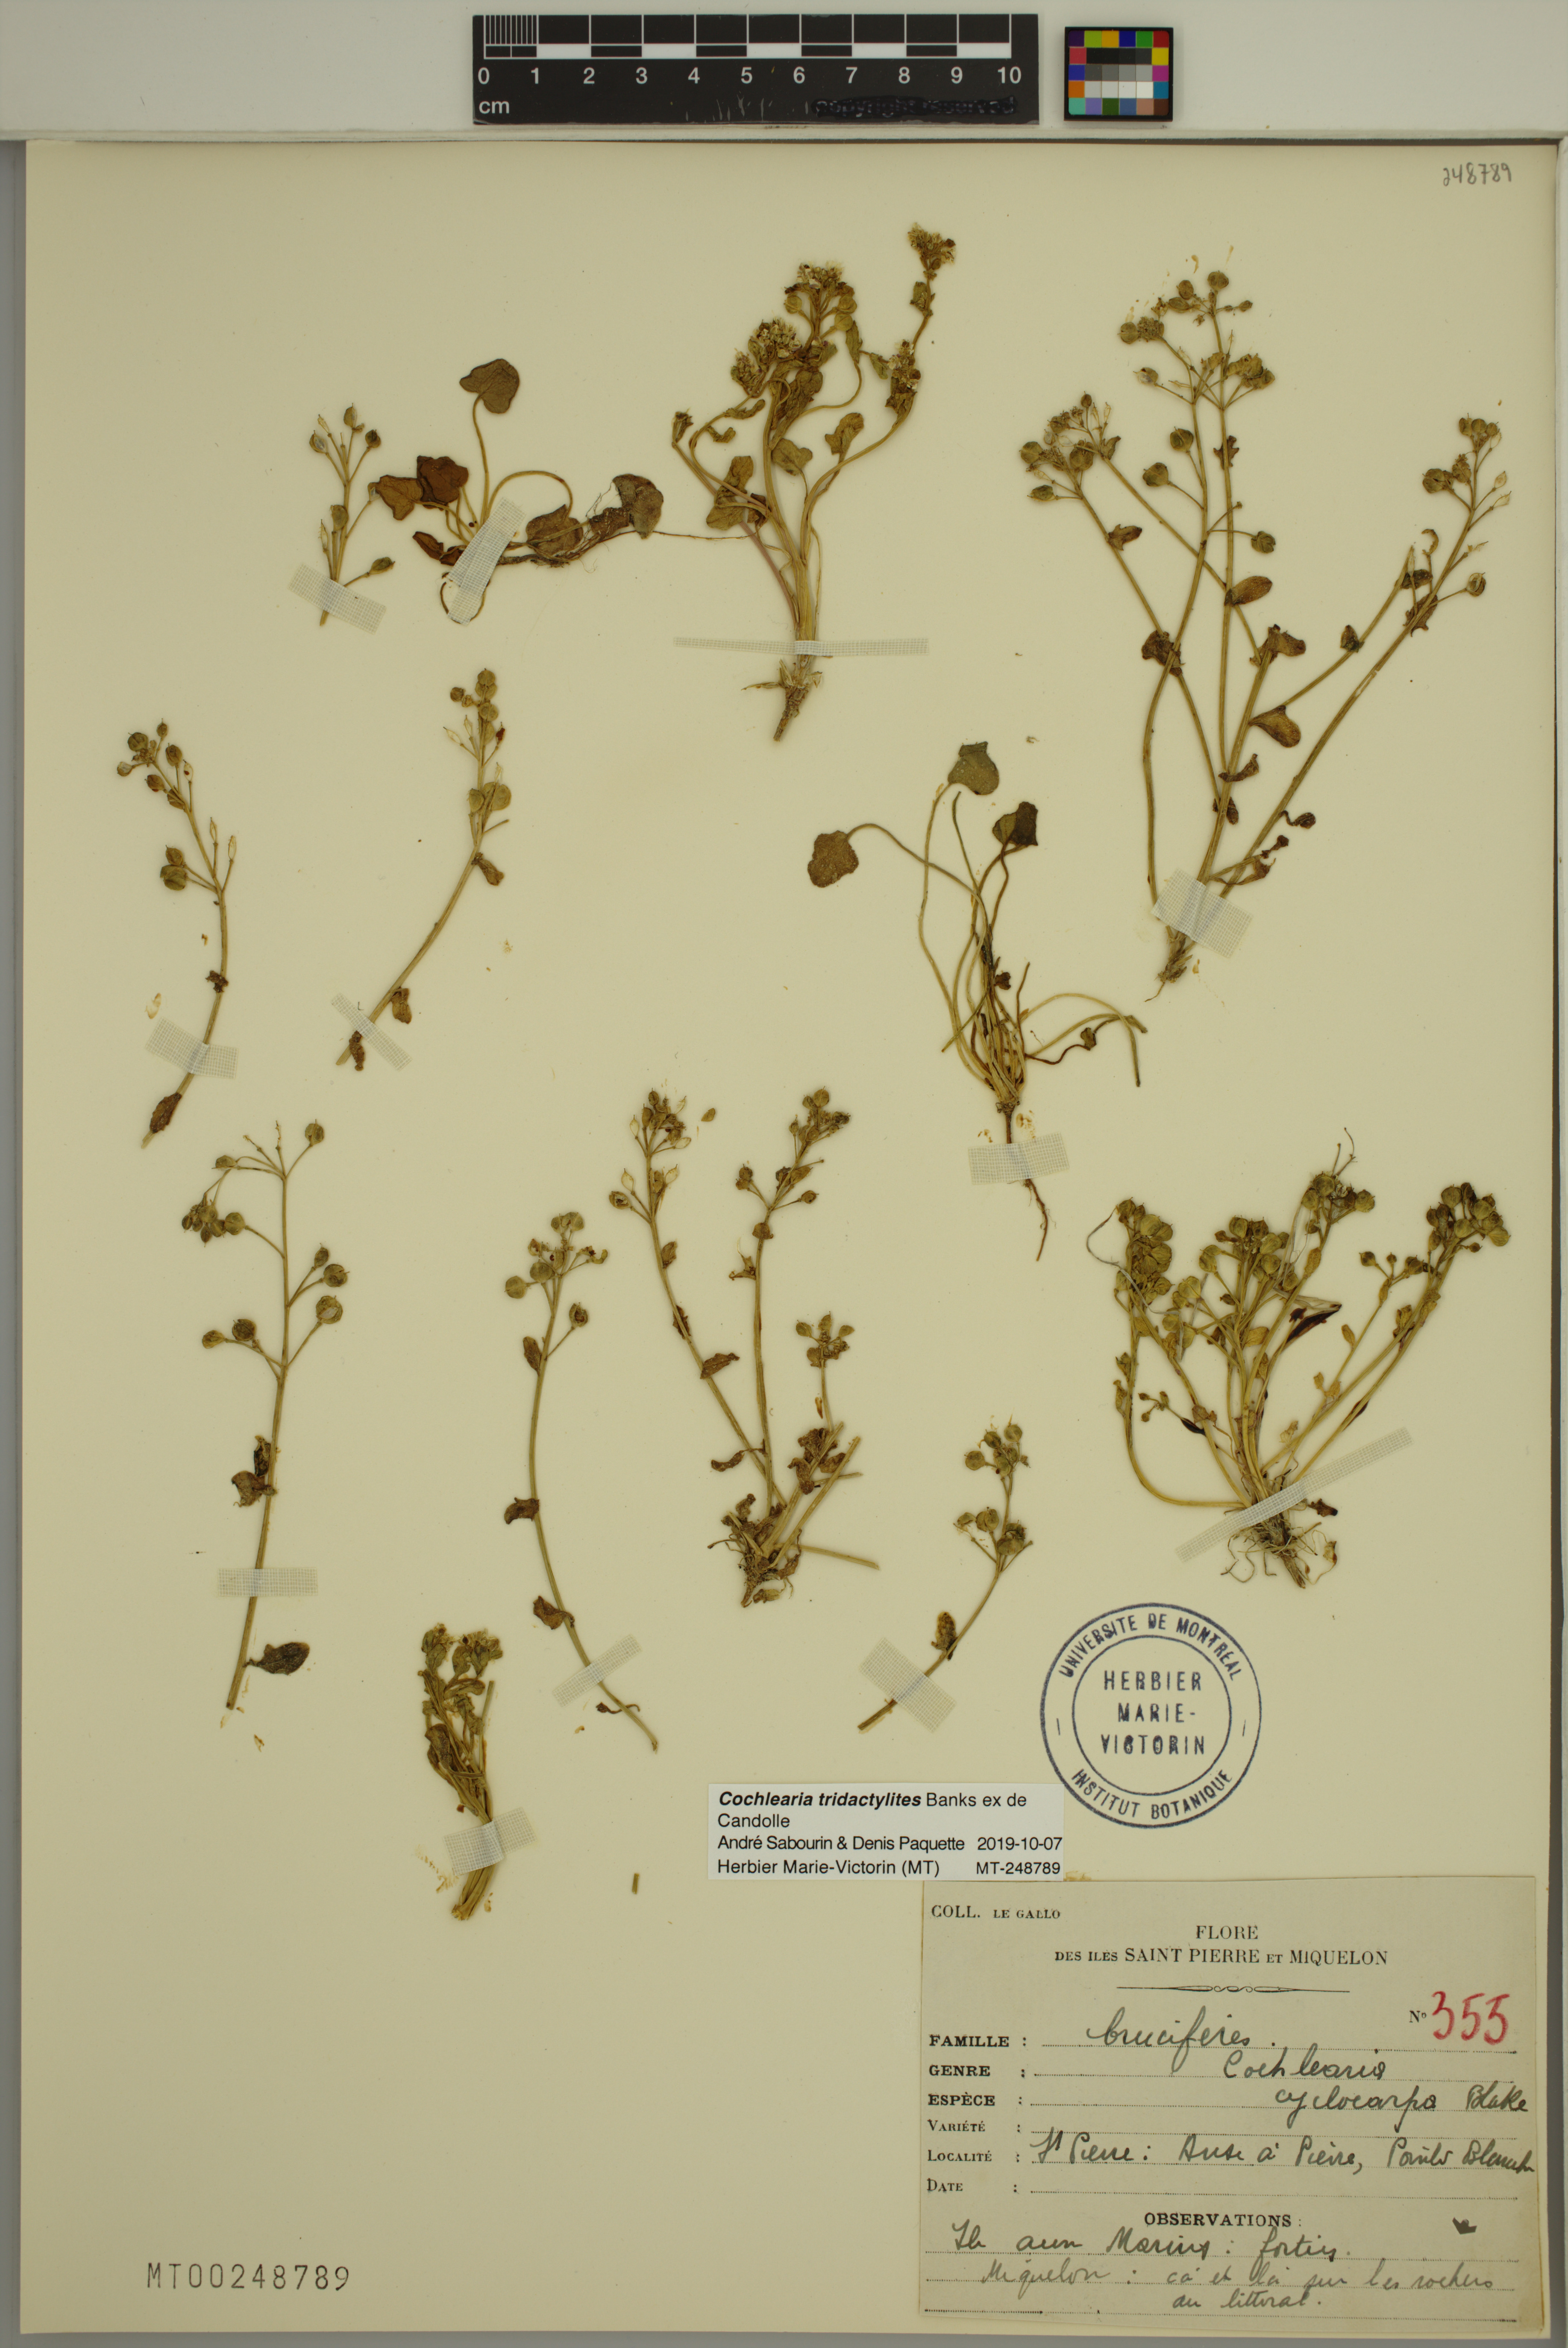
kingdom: Plantae
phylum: Tracheophyta
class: Magnoliopsida
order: Brassicales
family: Brassicaceae
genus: Cochlearia
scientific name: Cochlearia tridactylites
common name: Limestone scurvygrass
